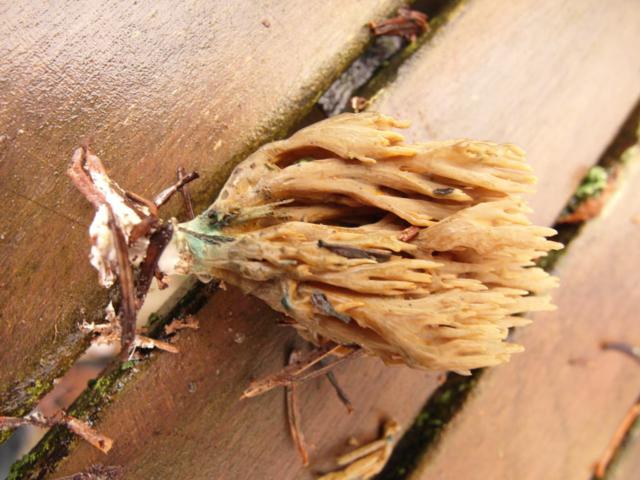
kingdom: Fungi
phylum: Basidiomycota
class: Agaricomycetes
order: Gomphales
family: Gomphaceae
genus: Phaeoclavulina
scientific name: Phaeoclavulina abietina
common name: gulgrøn koralsvamp
